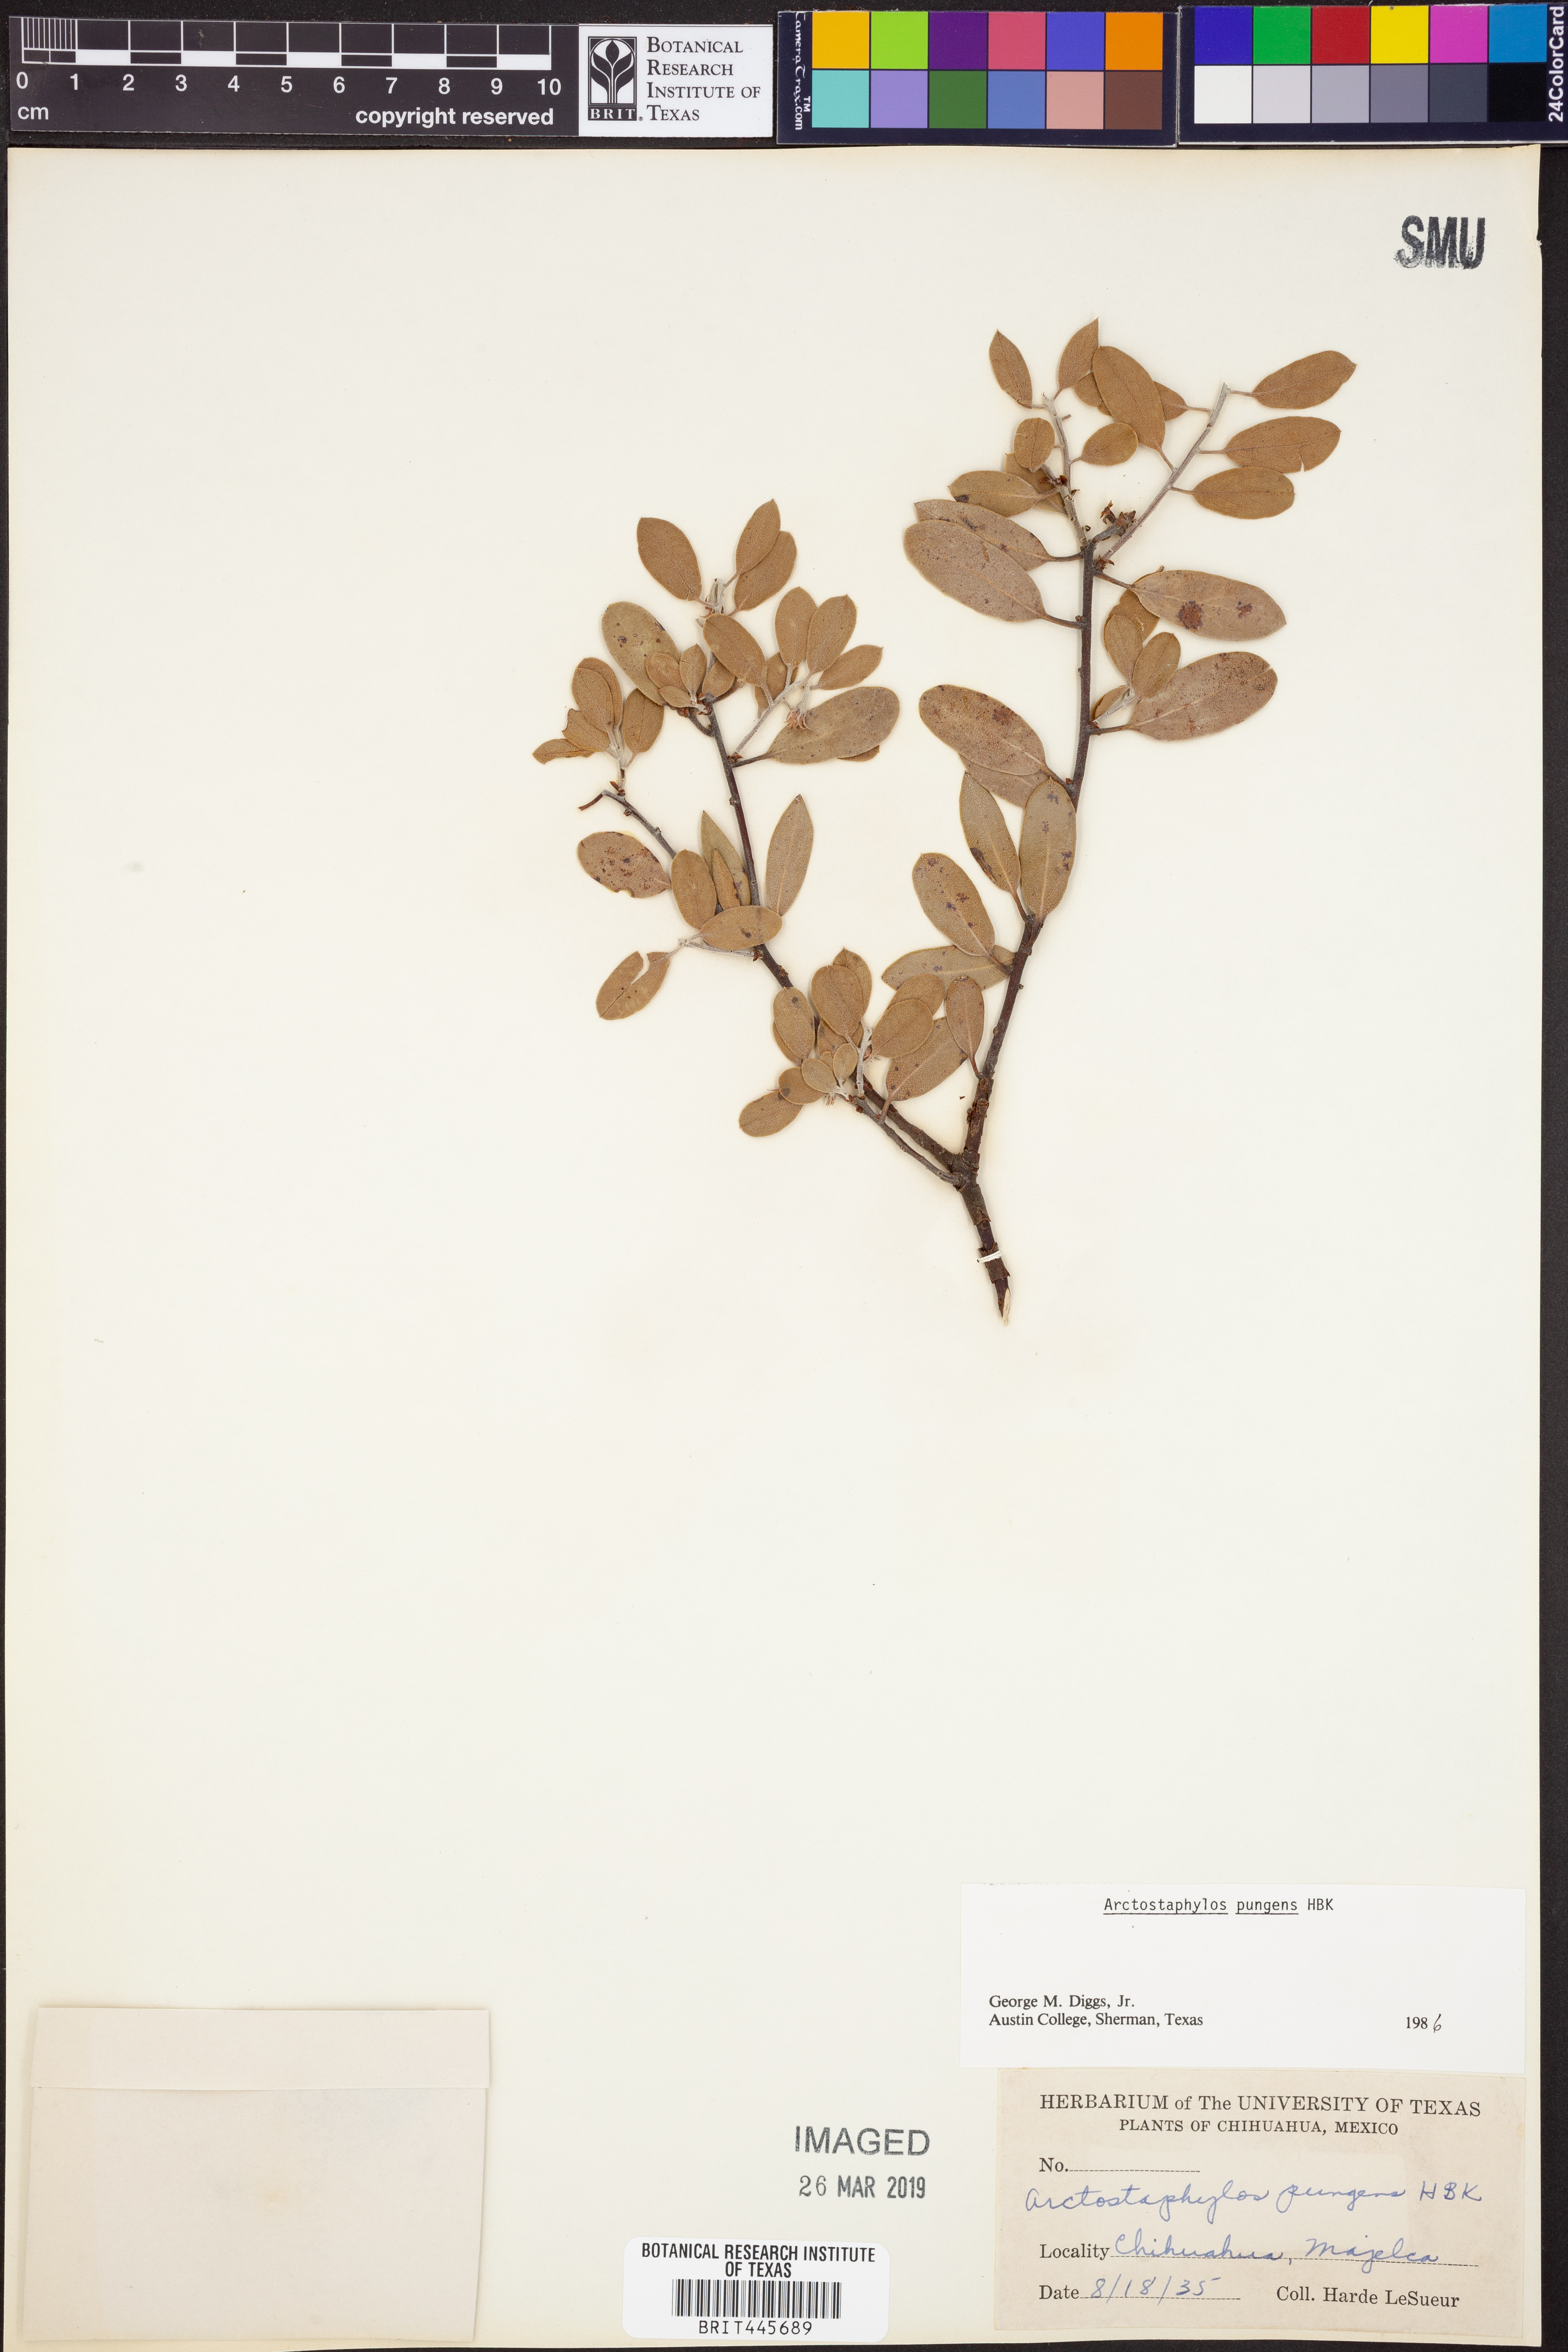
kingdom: Plantae
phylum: Tracheophyta
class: Magnoliopsida
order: Ericales
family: Ericaceae
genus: Arctostaphylos
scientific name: Arctostaphylos pungens
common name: Mexican manzanita
